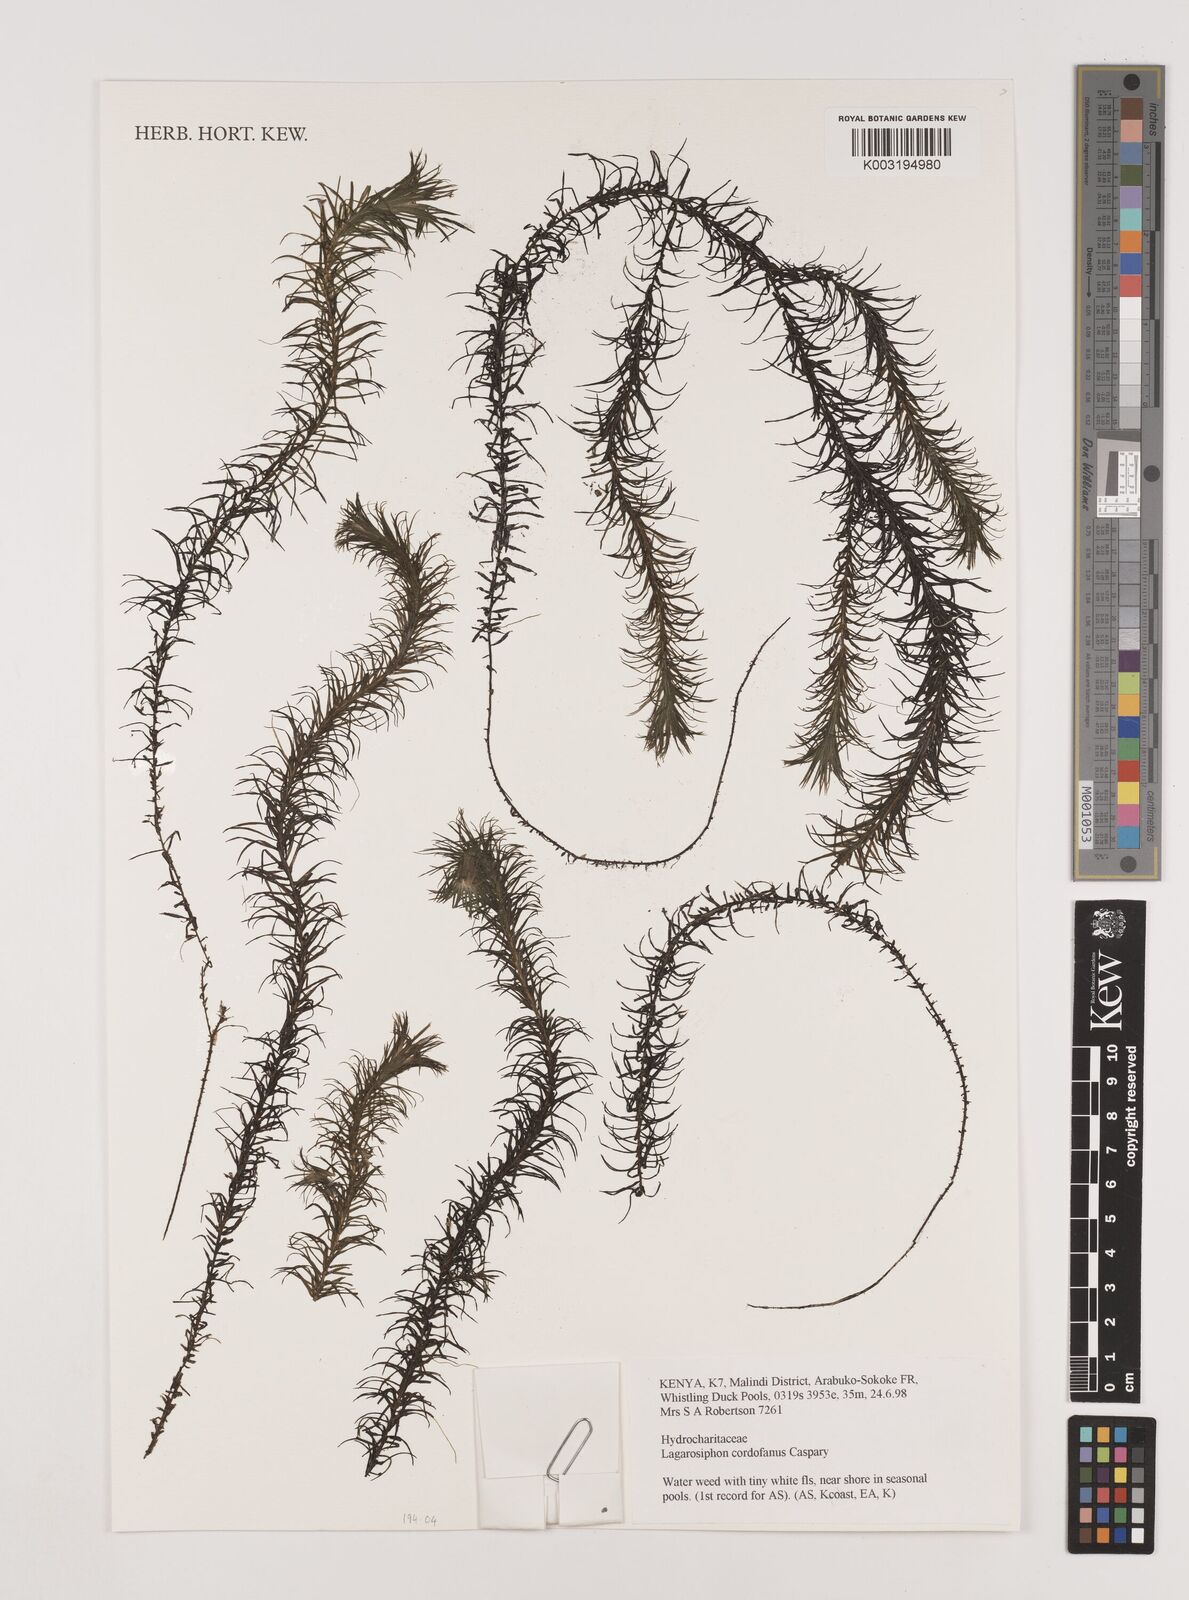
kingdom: Plantae
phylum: Tracheophyta
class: Liliopsida
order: Alismatales
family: Hydrocharitaceae
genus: Lagarosiphon
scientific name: Lagarosiphon cordofanus
